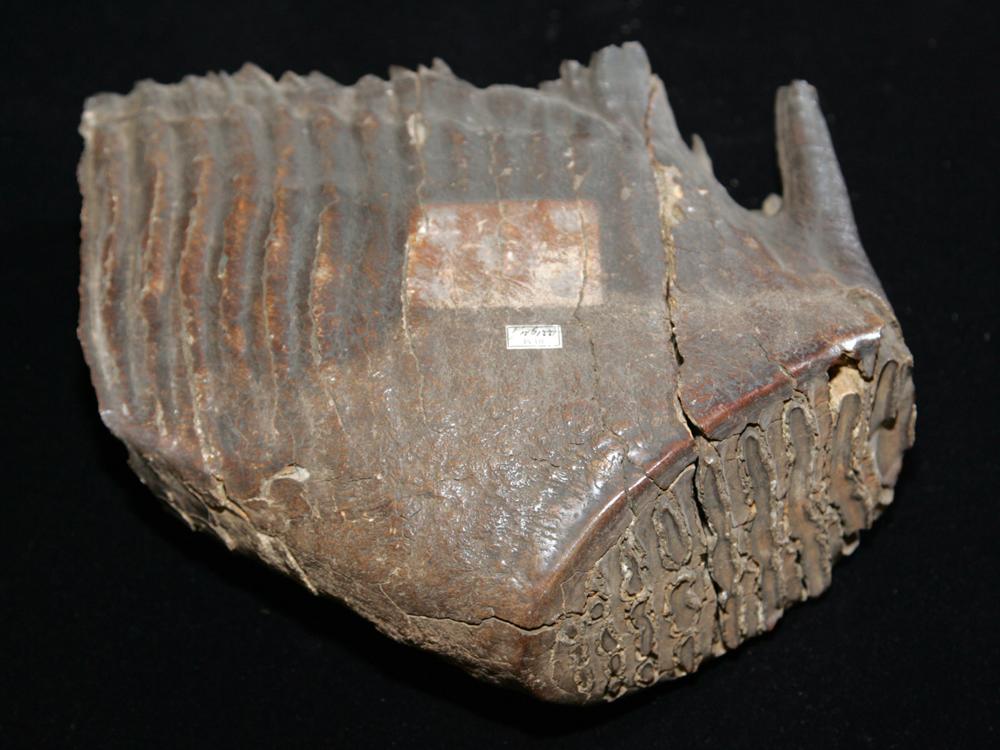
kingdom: Animalia
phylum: Chordata
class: Mammalia
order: Proboscidea
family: Elephantidae
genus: Mammuthus
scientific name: Mammuthus primigenius
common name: Wooly mammoth
